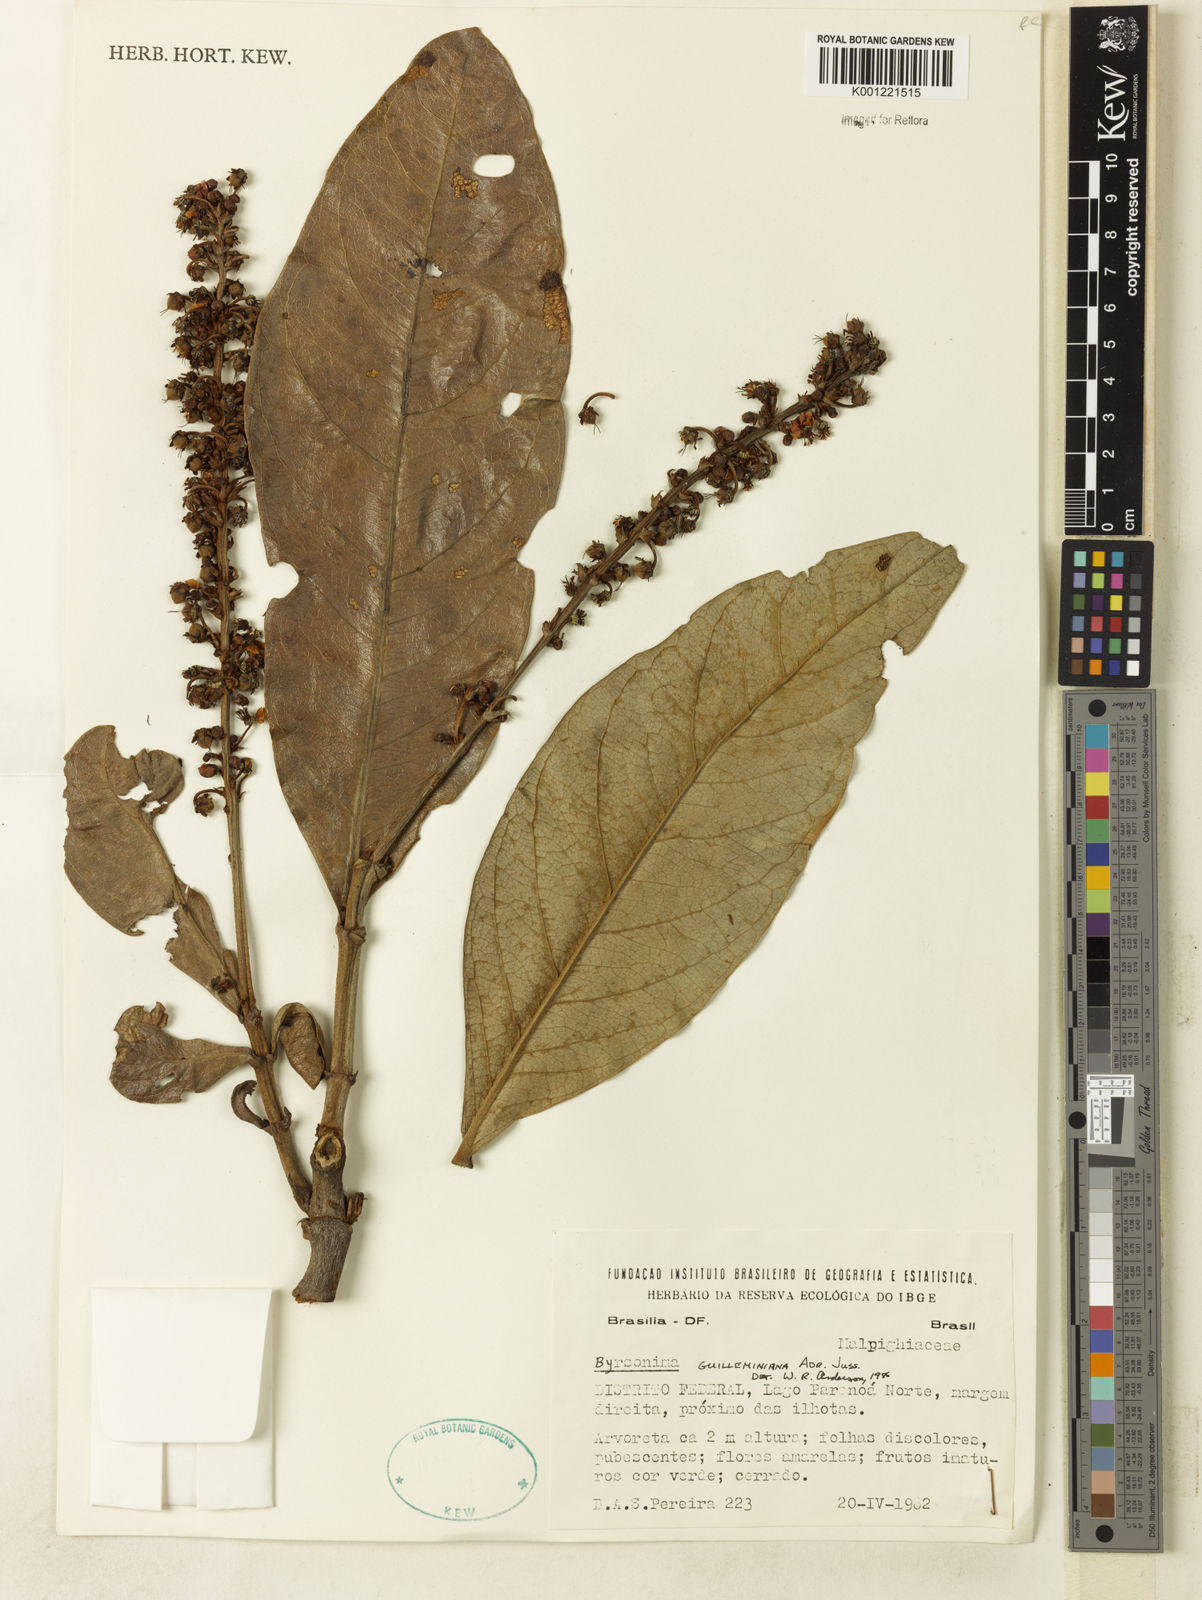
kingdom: Plantae
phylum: Tracheophyta
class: Magnoliopsida
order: Malpighiales
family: Malpighiaceae
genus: Byrsonima
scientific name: Byrsonima guilleminiana
